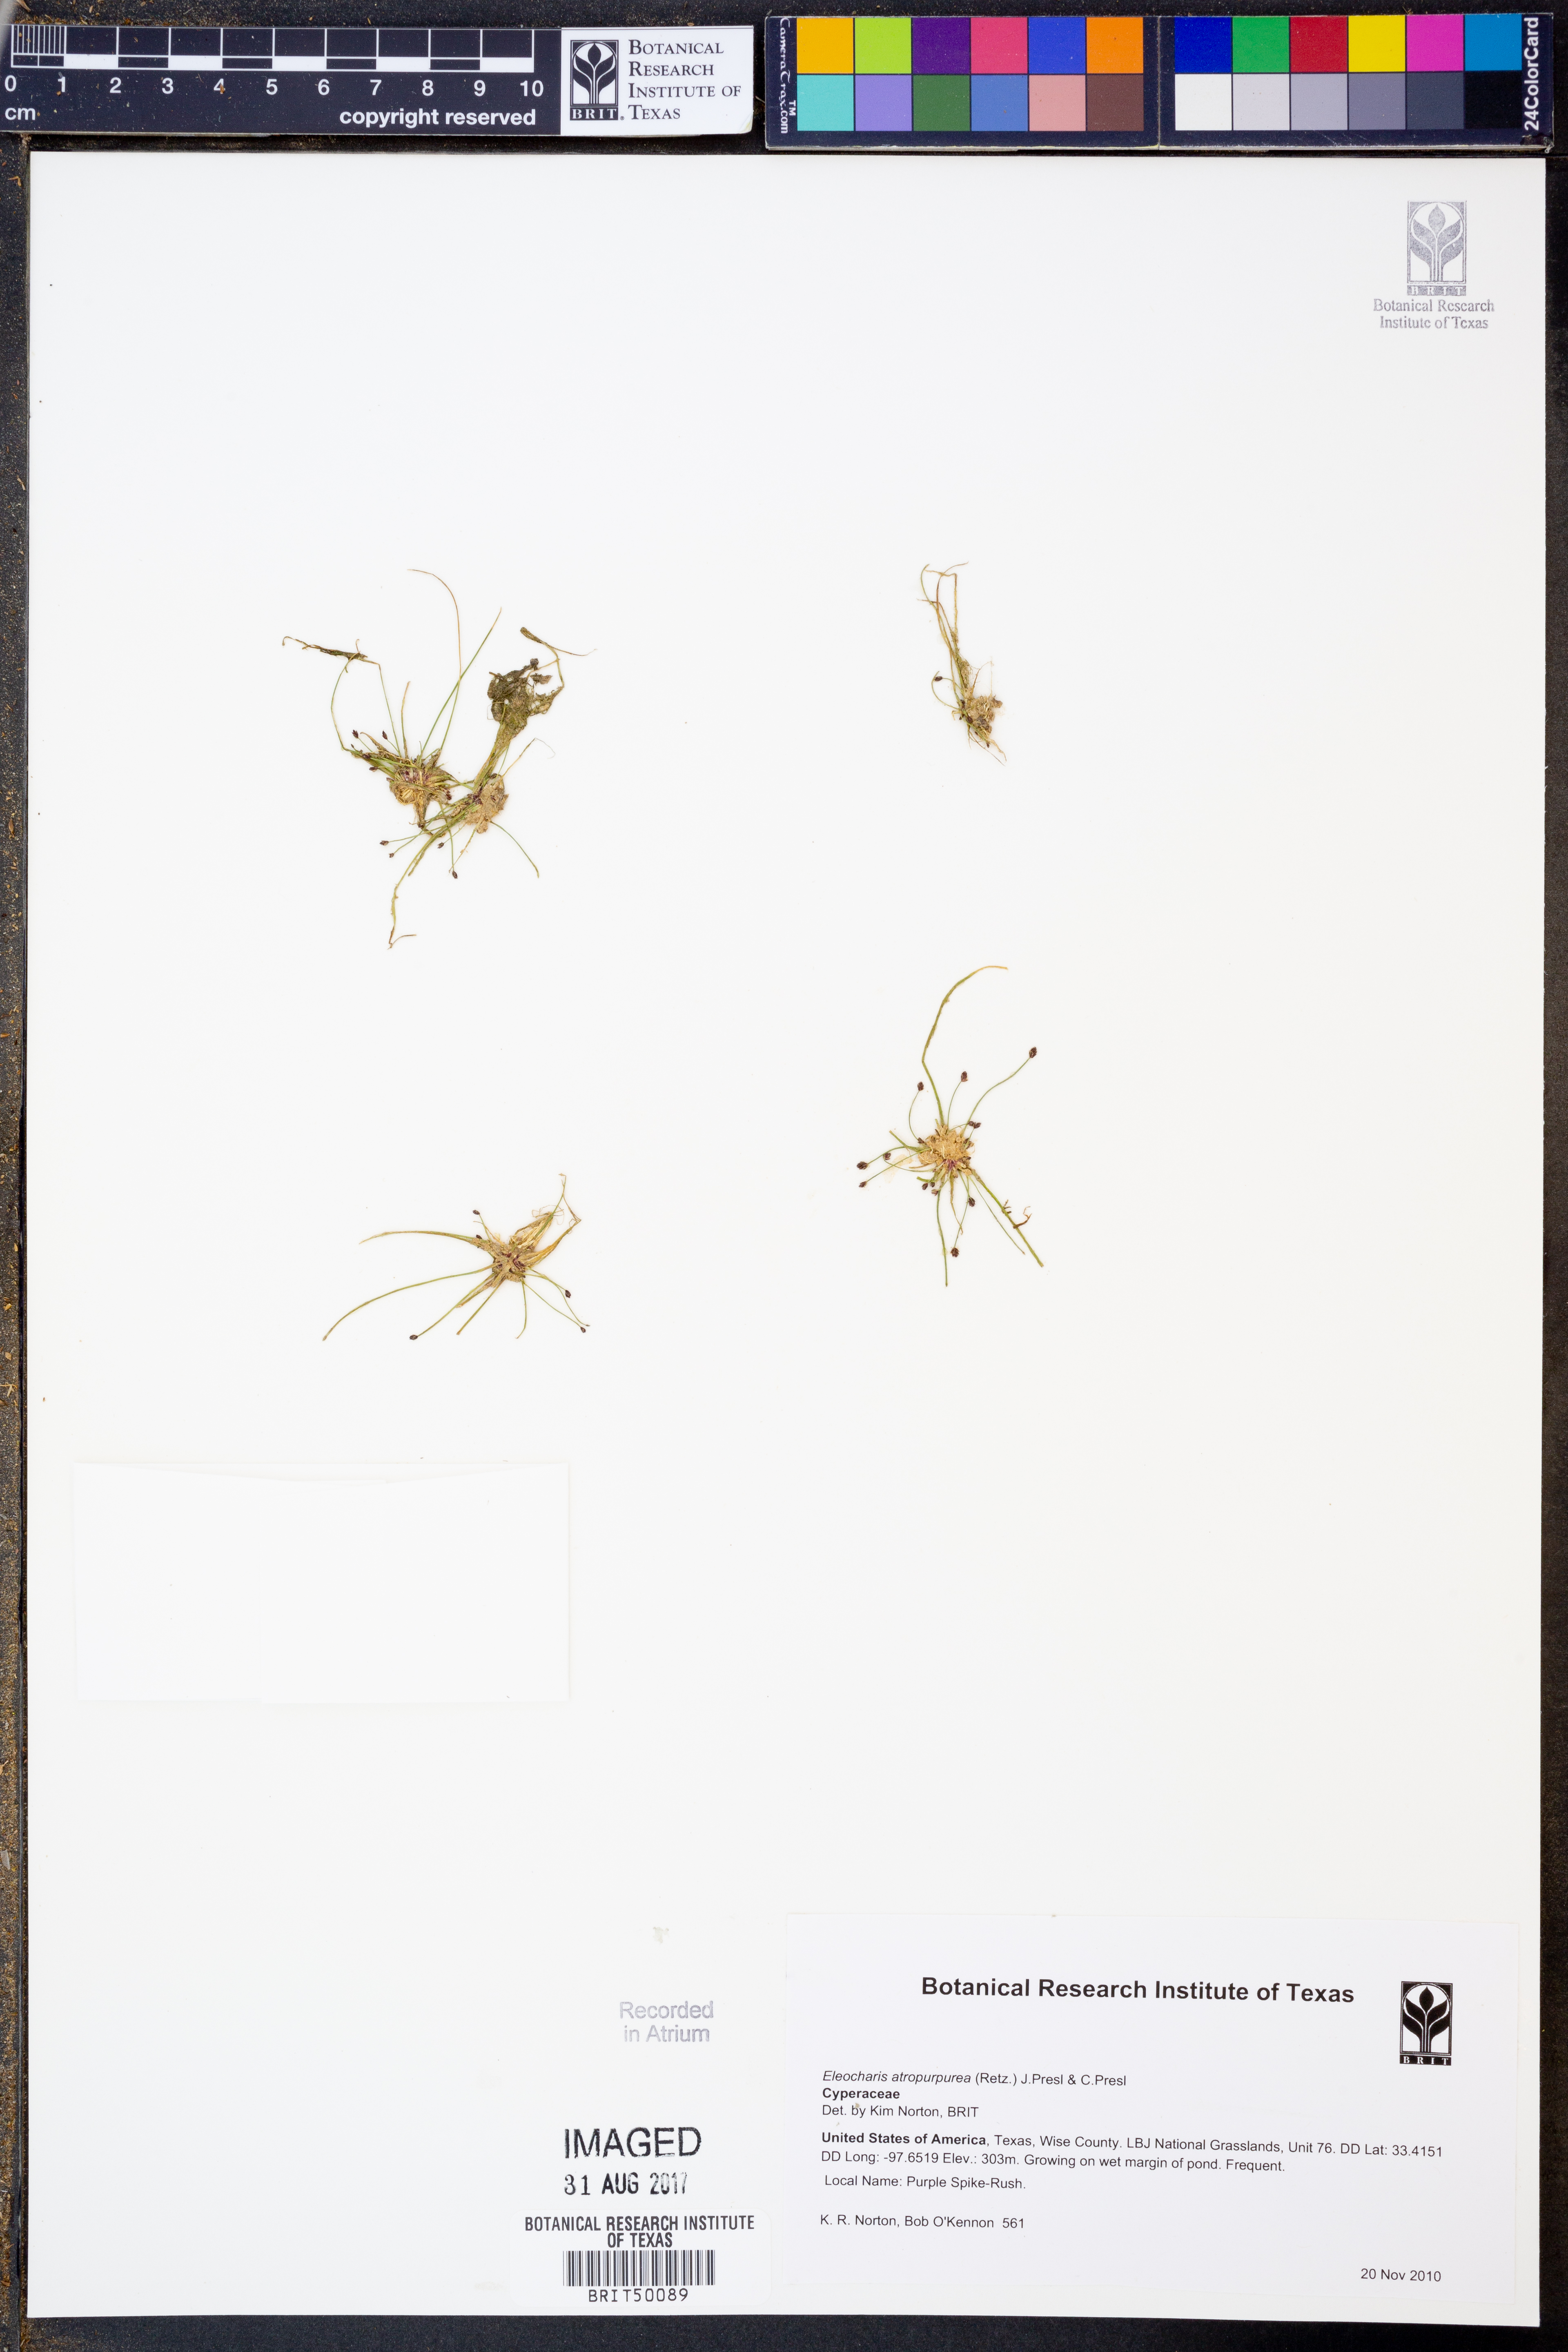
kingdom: Plantae
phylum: Tracheophyta
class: Liliopsida
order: Poales
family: Cyperaceae
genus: Eleocharis
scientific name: Eleocharis atropurpurea
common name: Purple spikerush
